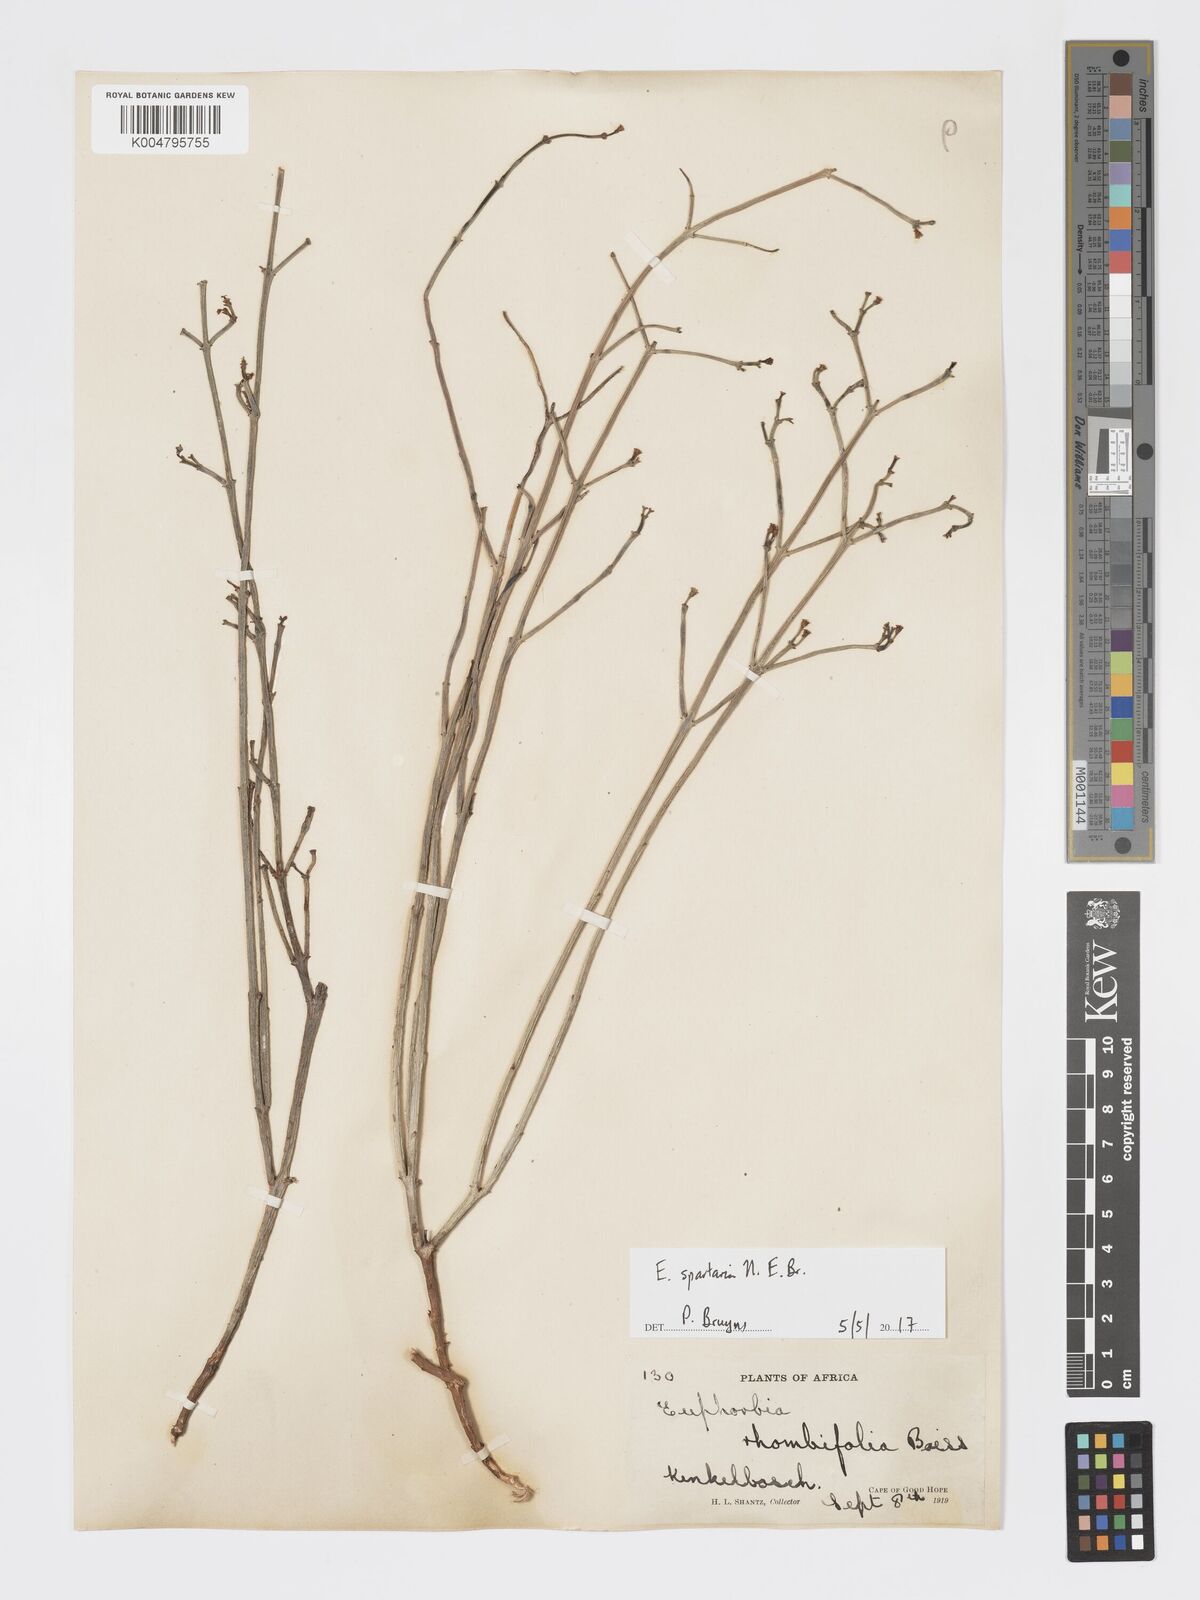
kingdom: Plantae
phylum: Tracheophyta
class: Magnoliopsida
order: Malpighiales
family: Euphorbiaceae
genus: Euphorbia
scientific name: Euphorbia spartaria
